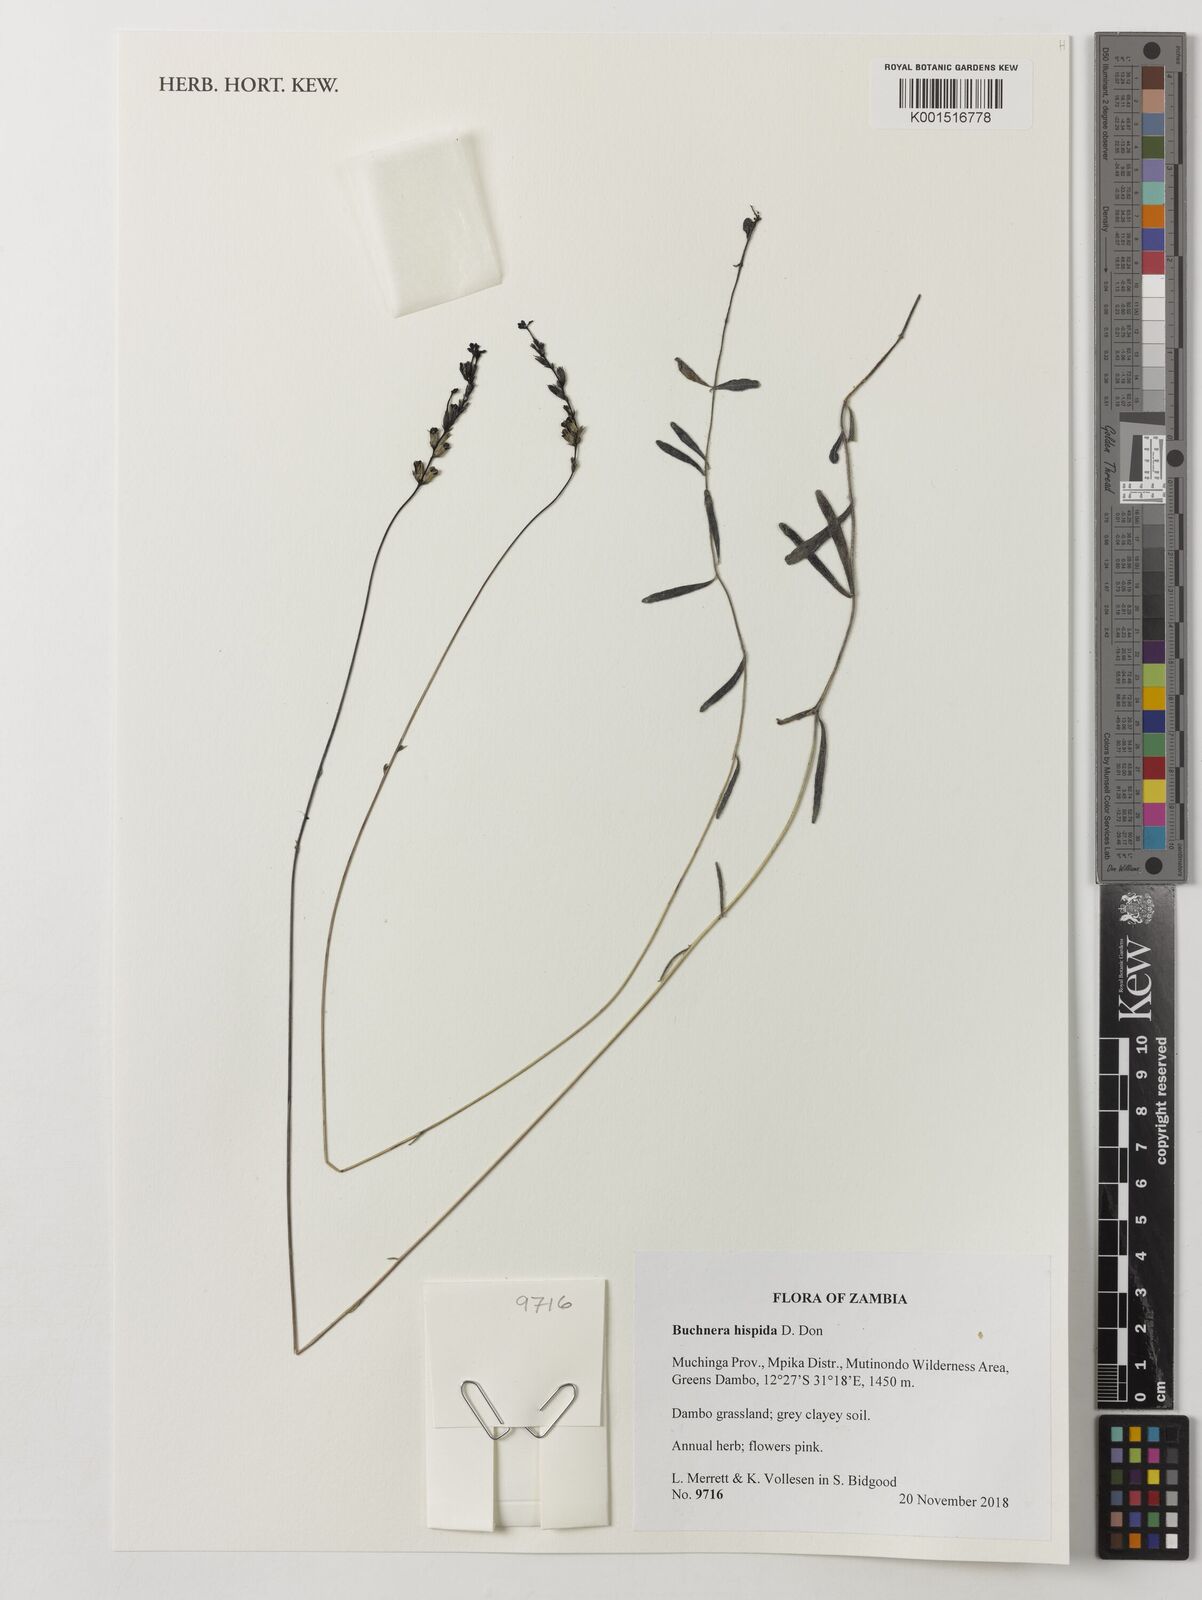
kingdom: Plantae
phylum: Tracheophyta
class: Magnoliopsida
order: Lamiales
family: Orobanchaceae
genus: Buchnera
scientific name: Buchnera hispida
